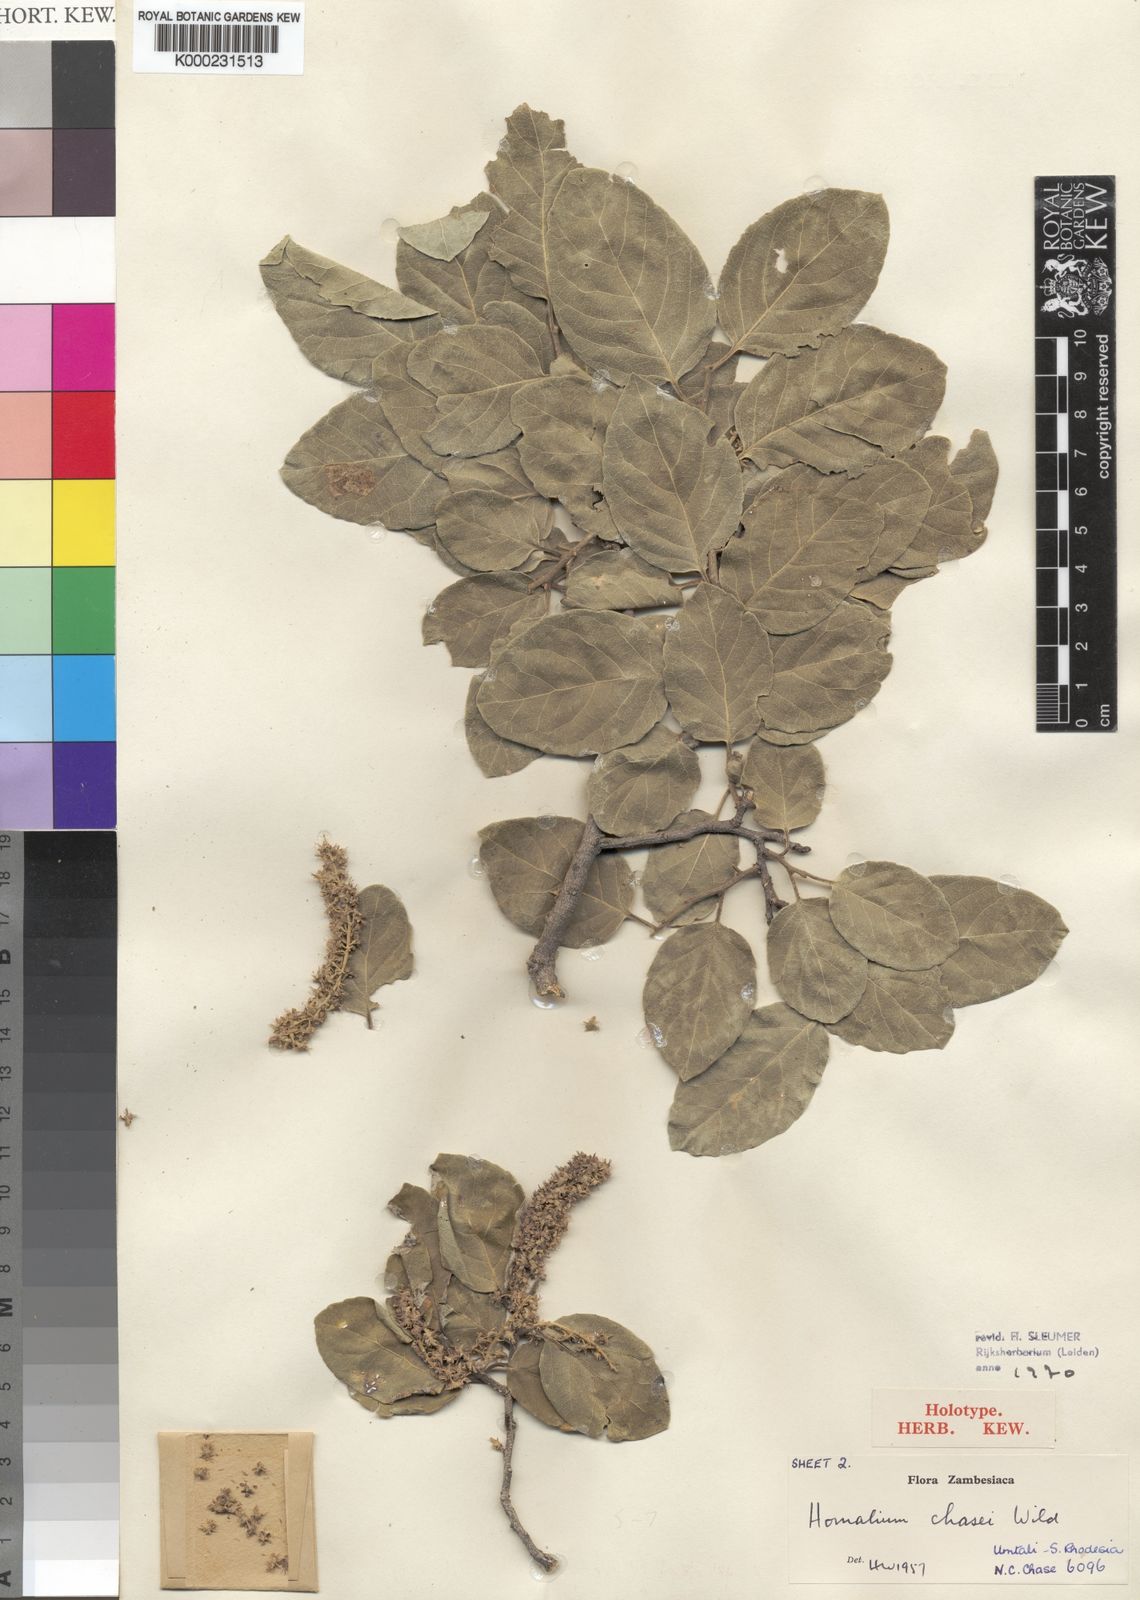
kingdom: Plantae
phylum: Tracheophyta
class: Magnoliopsida
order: Malpighiales
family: Salicaceae
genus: Homalium
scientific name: Homalium dentatum
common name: Brown ironwood
